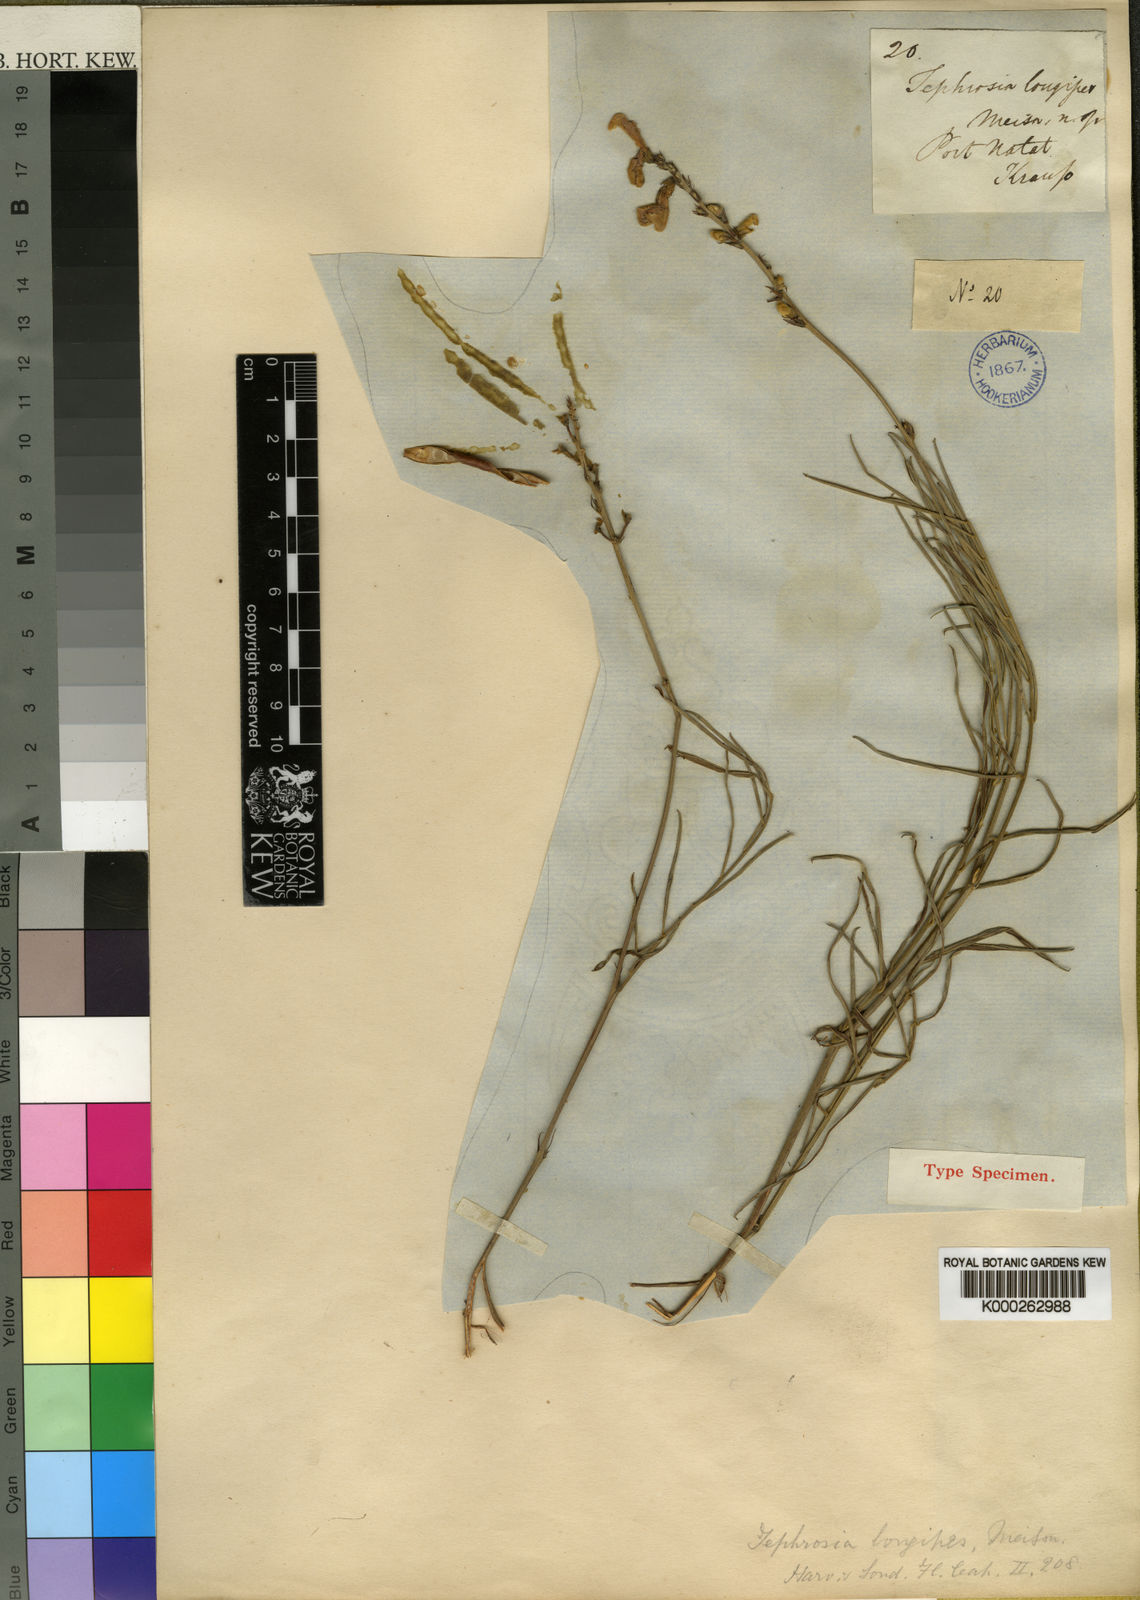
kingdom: Plantae
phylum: Tracheophyta
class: Magnoliopsida
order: Fabales
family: Fabaceae
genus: Tephrosia
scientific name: Tephrosia longipes
